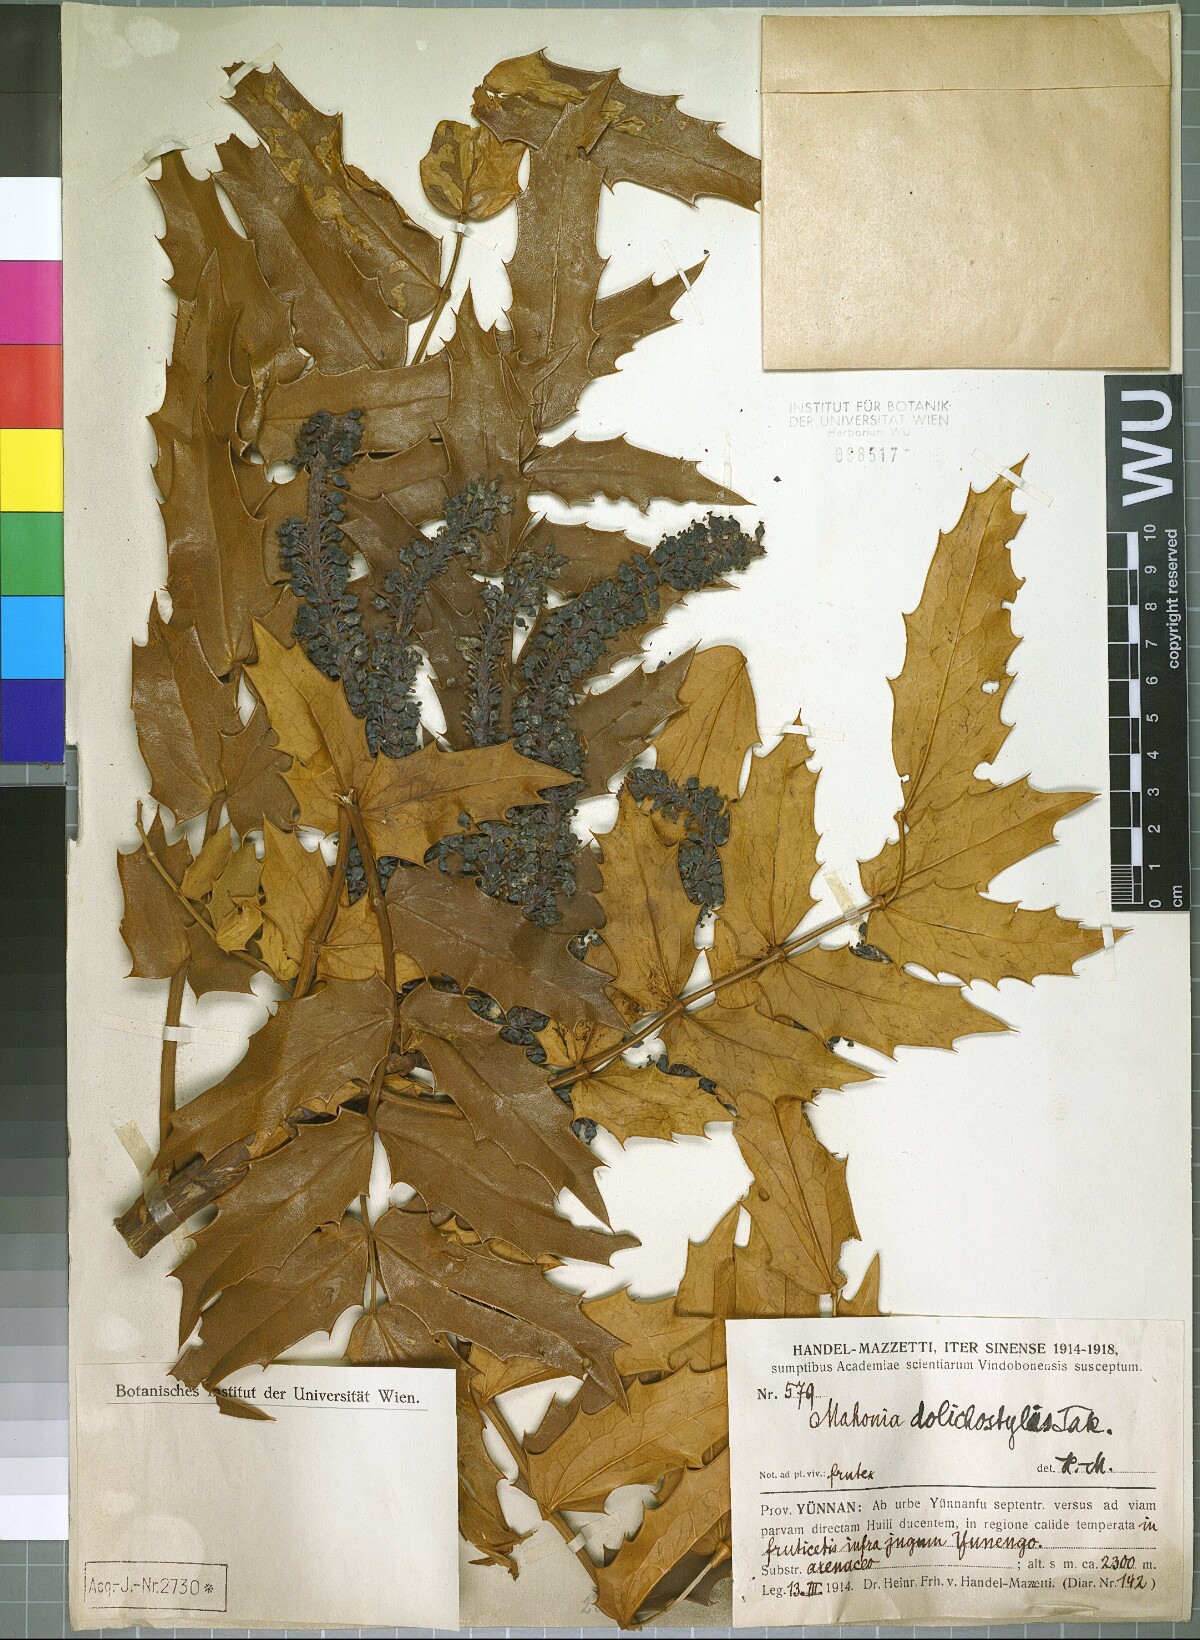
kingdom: Plantae
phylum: Tracheophyta
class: Magnoliopsida
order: Ranunculales
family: Berberidaceae
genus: Mahonia
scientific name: Mahonia napaulensis
